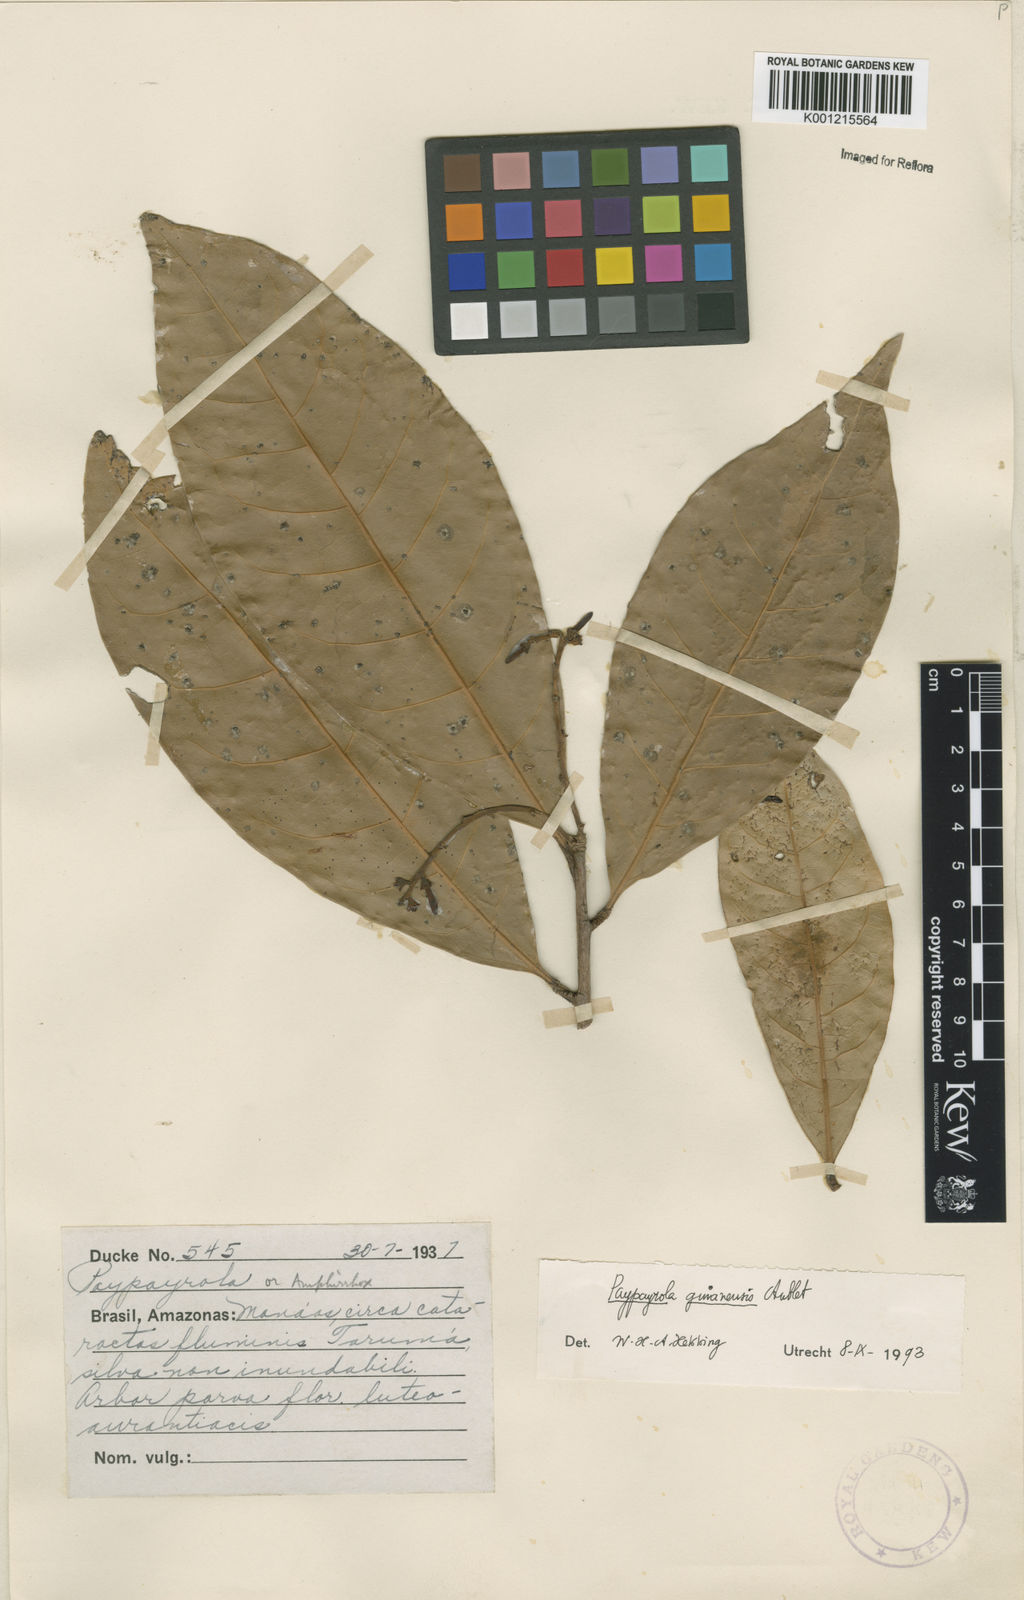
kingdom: Plantae
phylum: Tracheophyta
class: Magnoliopsida
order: Malpighiales
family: Violaceae
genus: Paypayrola
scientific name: Paypayrola guianensis
